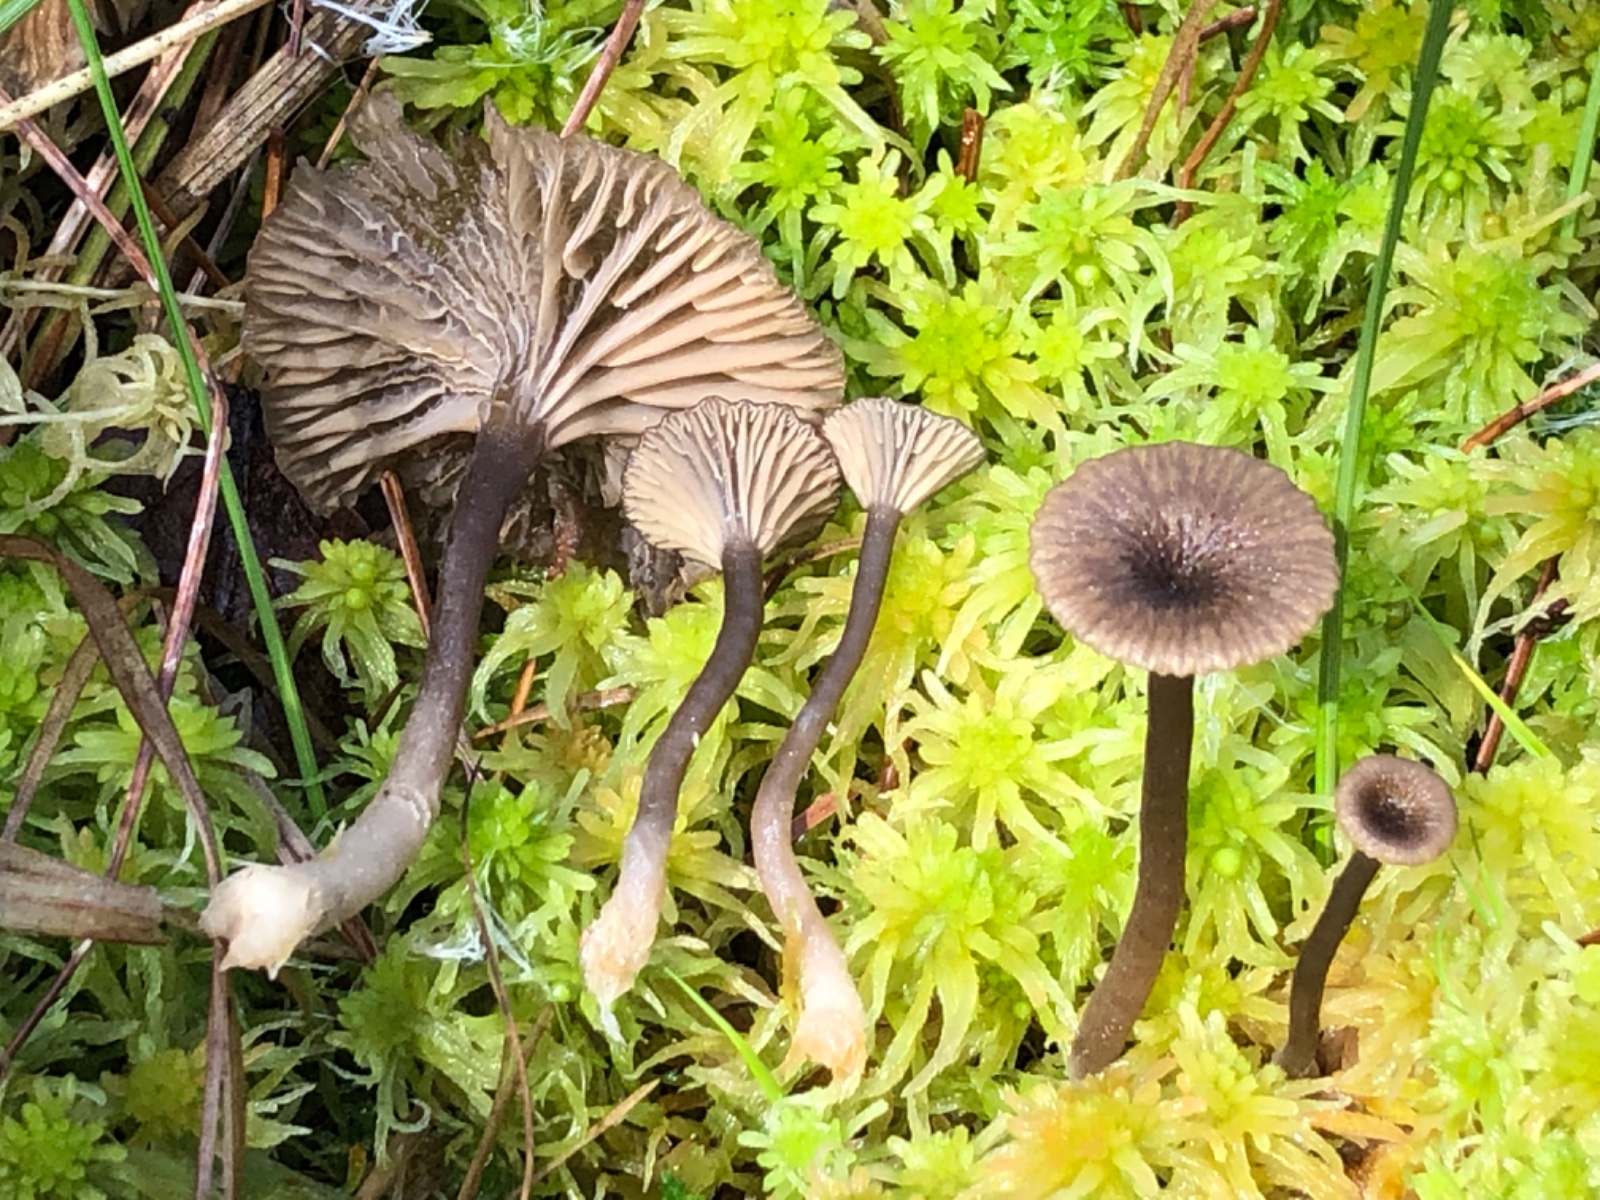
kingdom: Fungi
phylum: Basidiomycota
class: Agaricomycetes
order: Agaricales
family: Hygrophoraceae
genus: Arrhenia
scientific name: Arrhenia gerardiana
